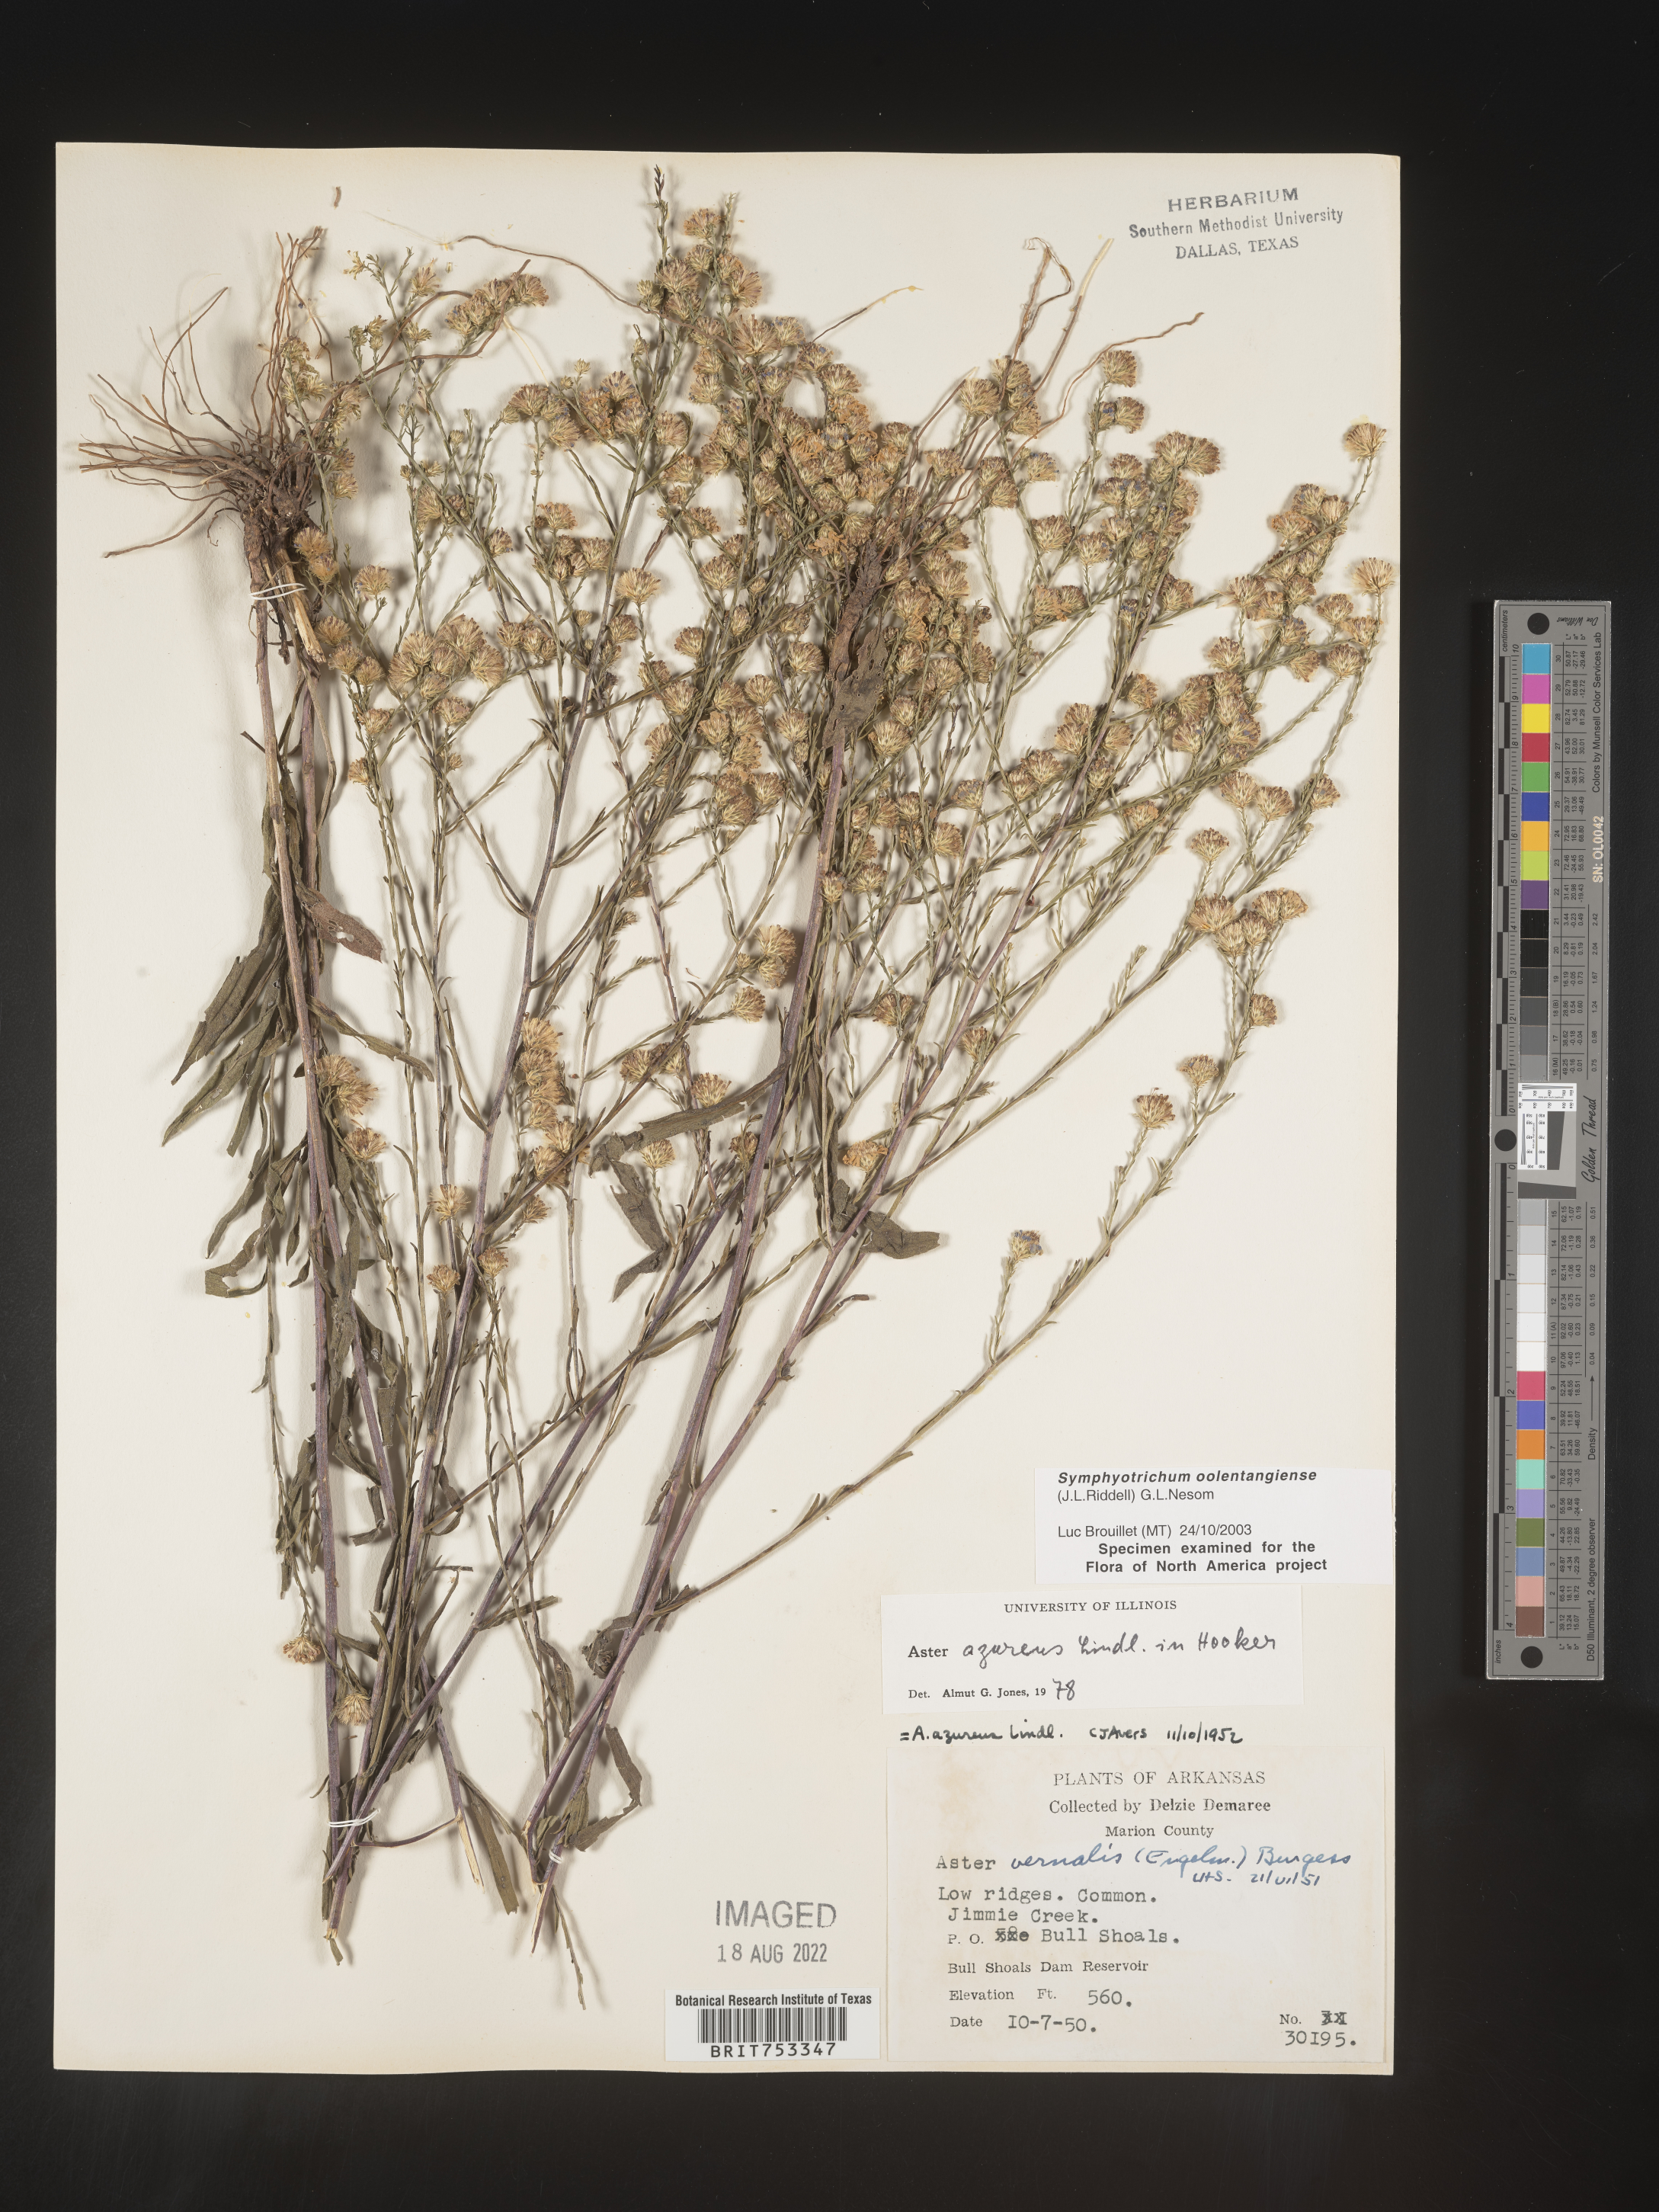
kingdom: Plantae
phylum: Tracheophyta
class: Magnoliopsida
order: Asterales
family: Asteraceae
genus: Symphyotrichum
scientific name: Symphyotrichum oolentangiense
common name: Azure aster
